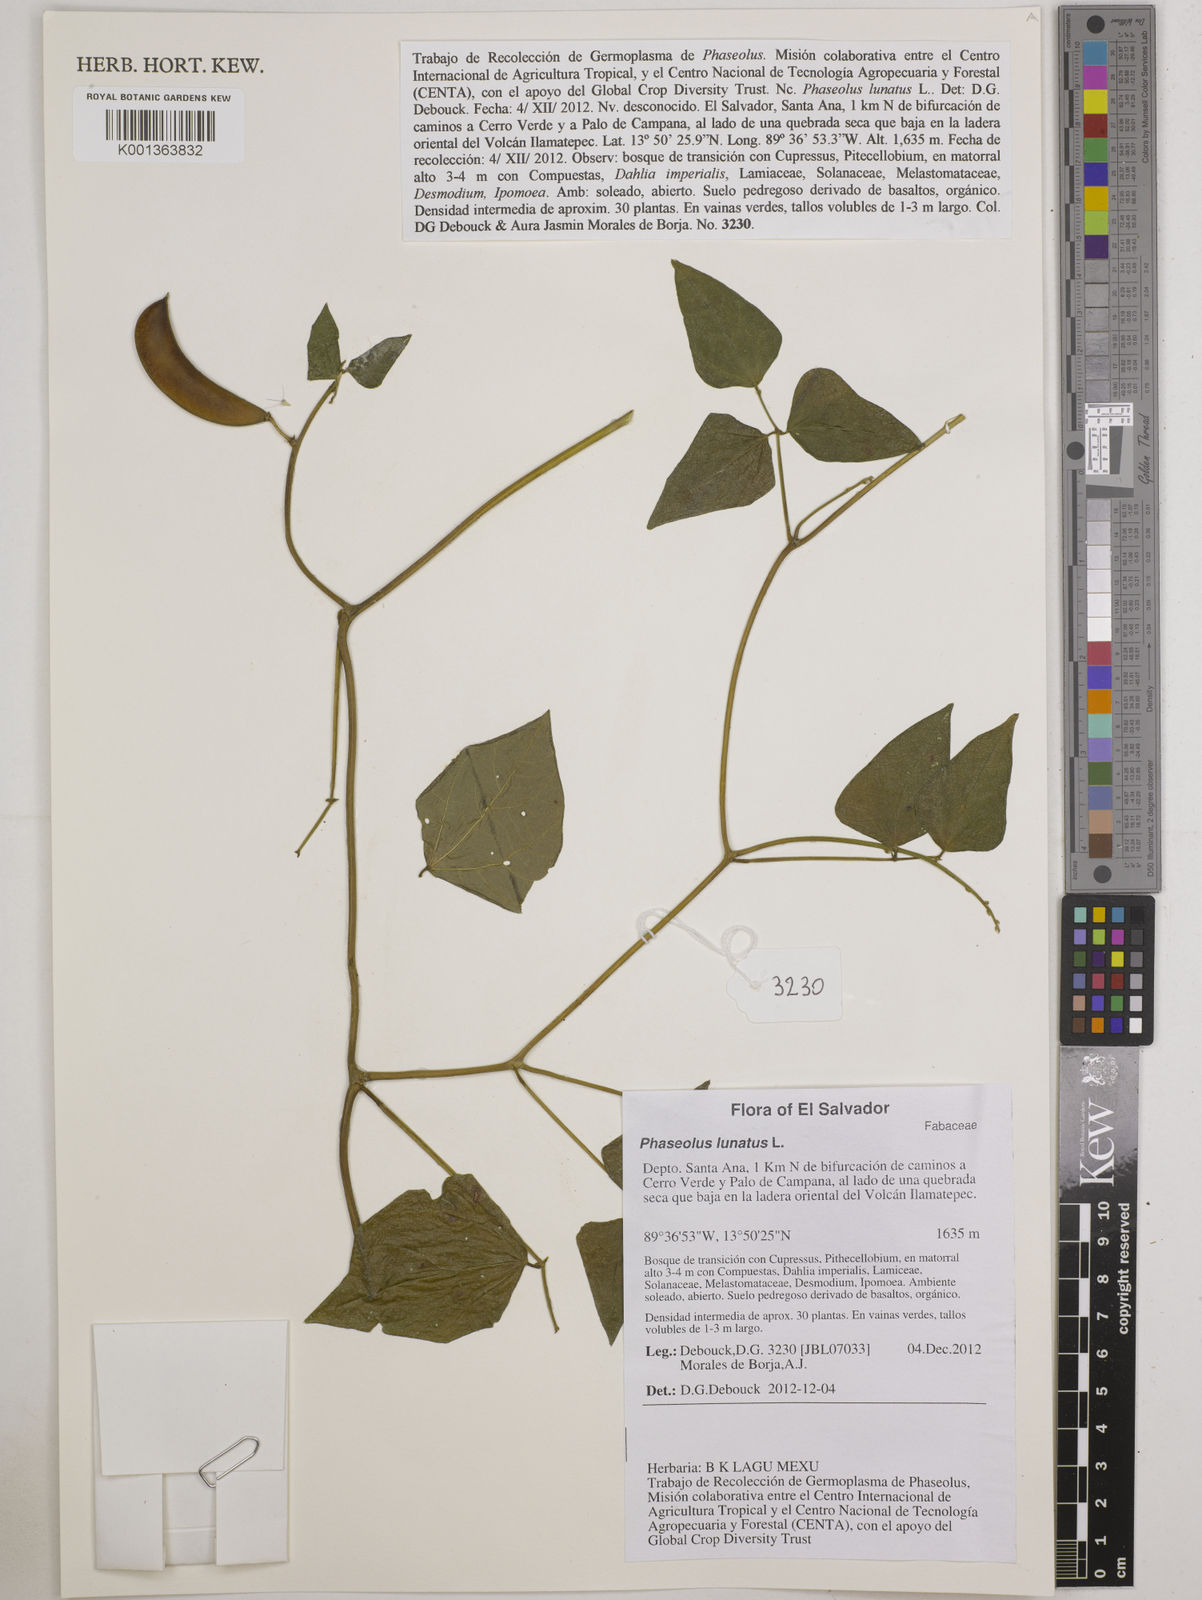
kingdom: Plantae
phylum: Tracheophyta
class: Magnoliopsida
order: Fabales
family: Fabaceae
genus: Phaseolus
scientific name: Phaseolus lunatus
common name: Sieva bean
